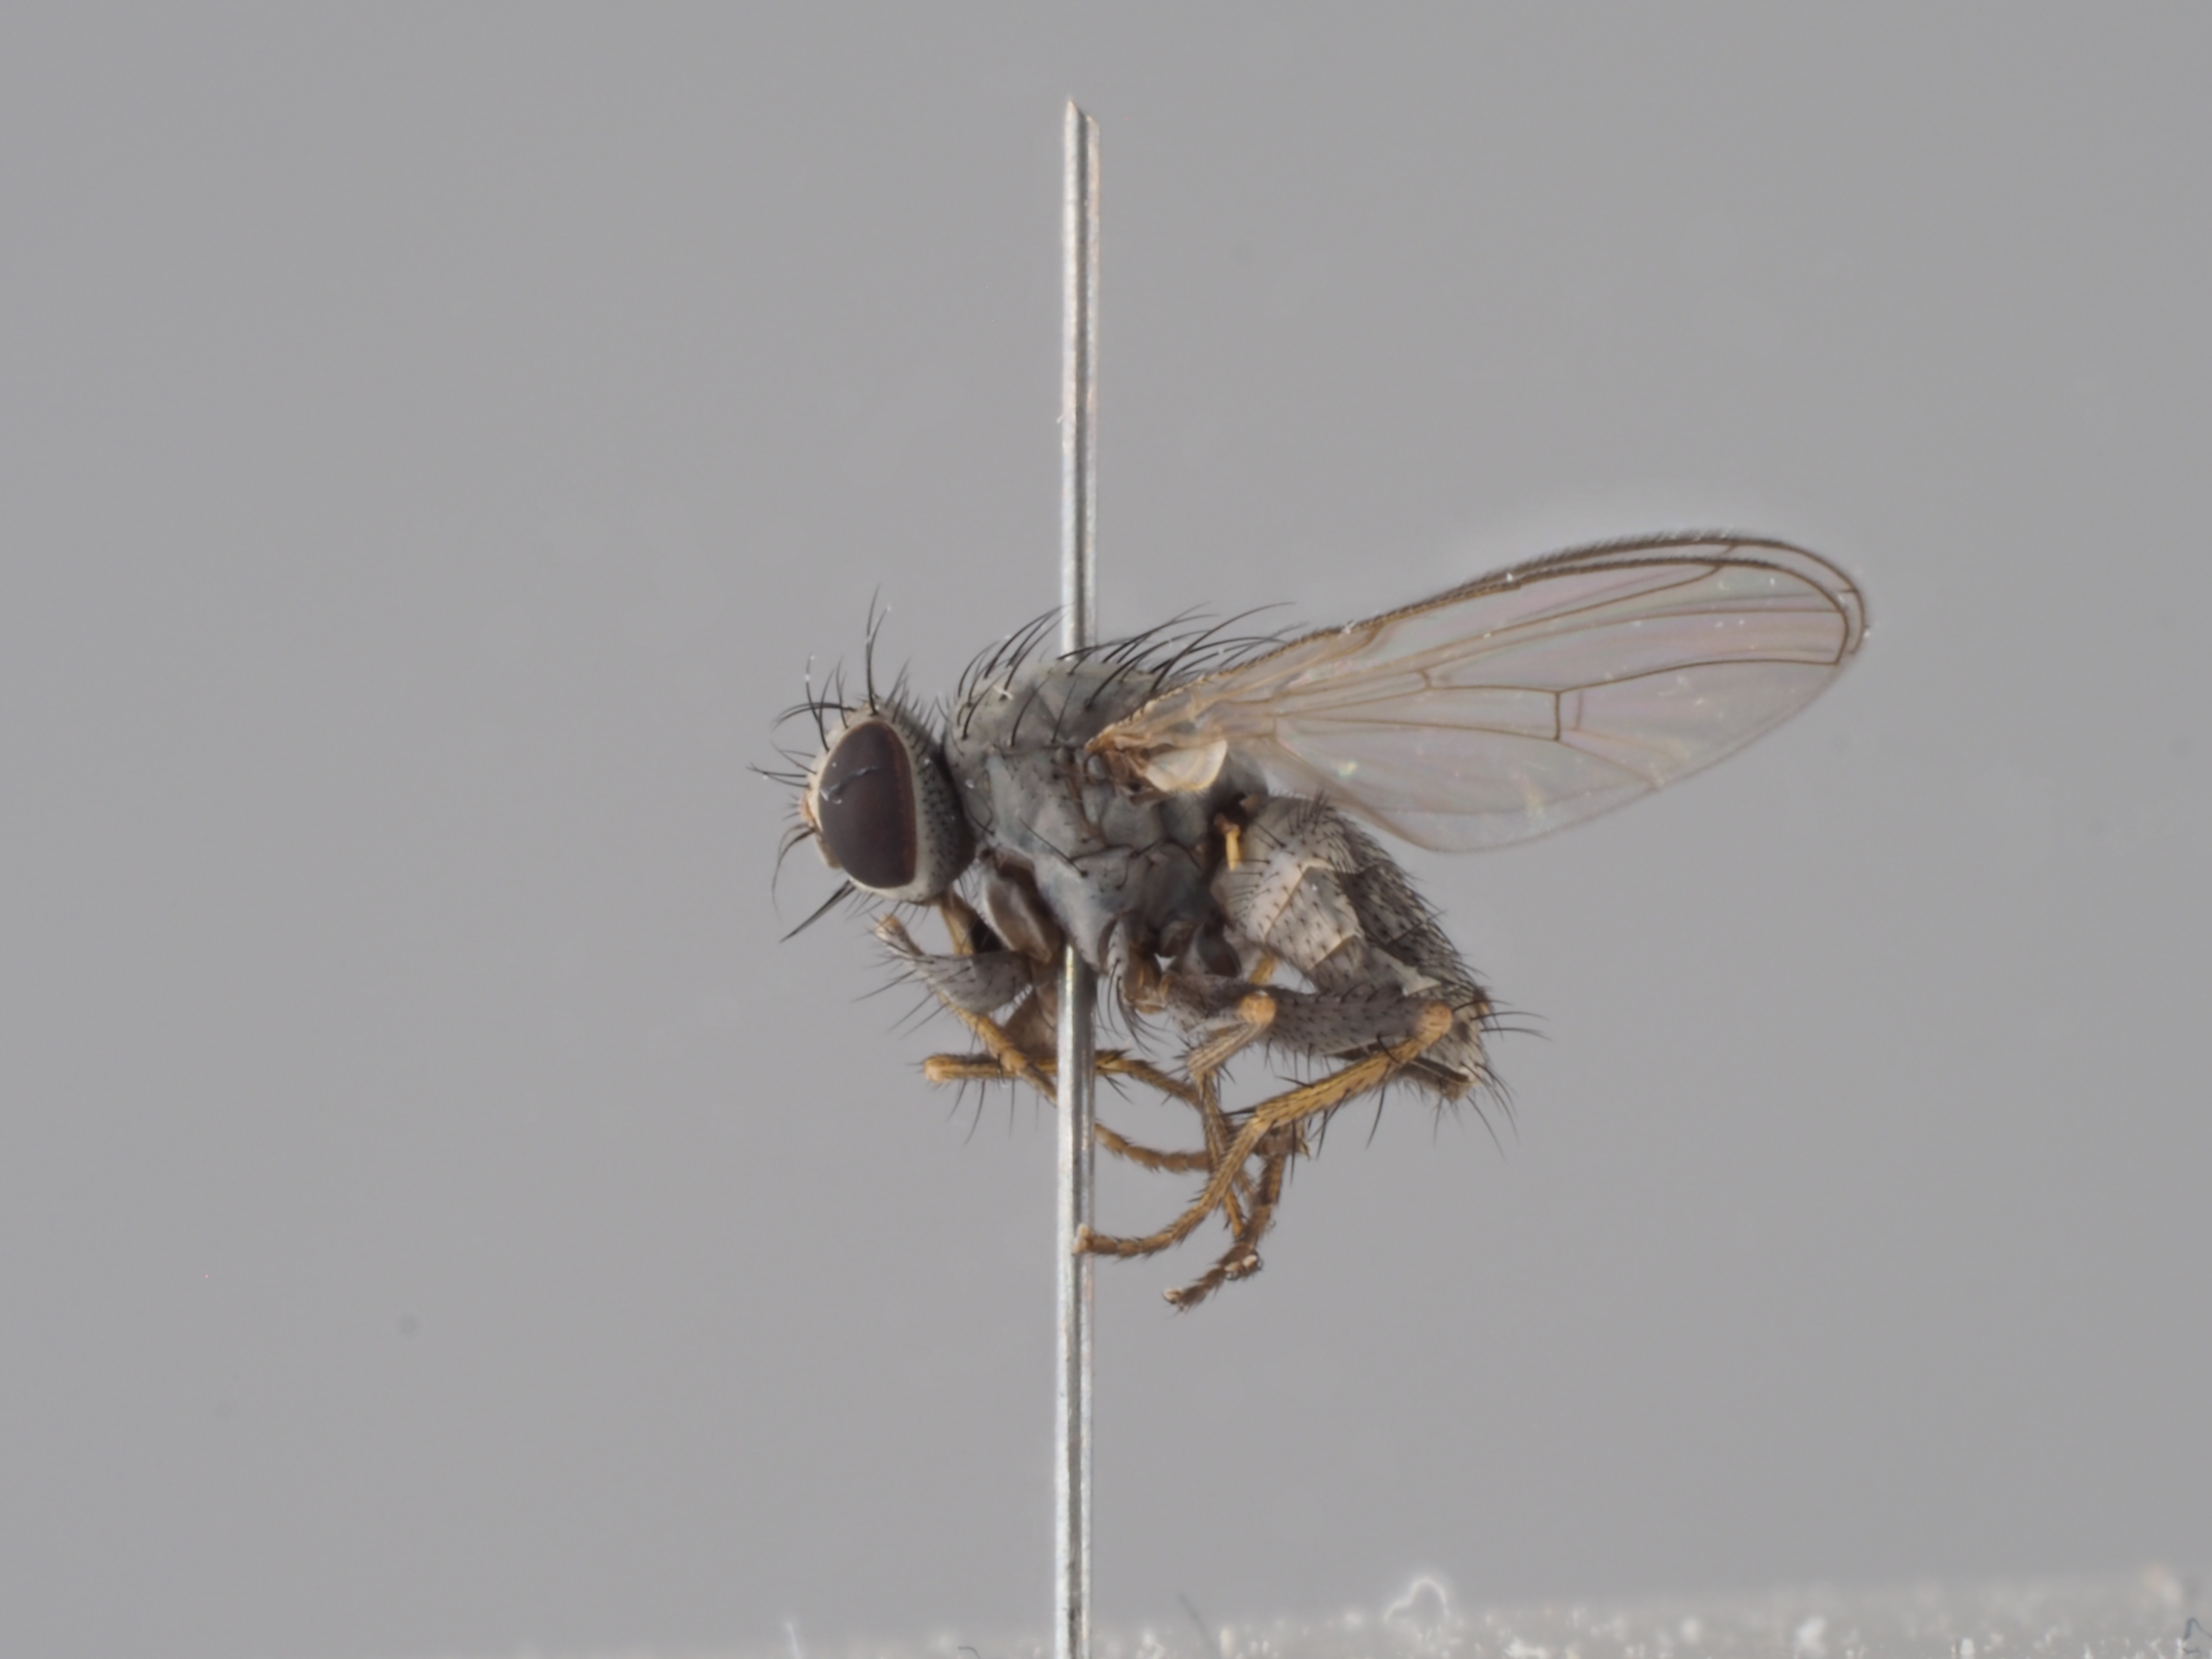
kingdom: Animalia
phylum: Arthropoda
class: Insecta
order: Diptera
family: Muscidae
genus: Caricea
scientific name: Caricea erythrocera
